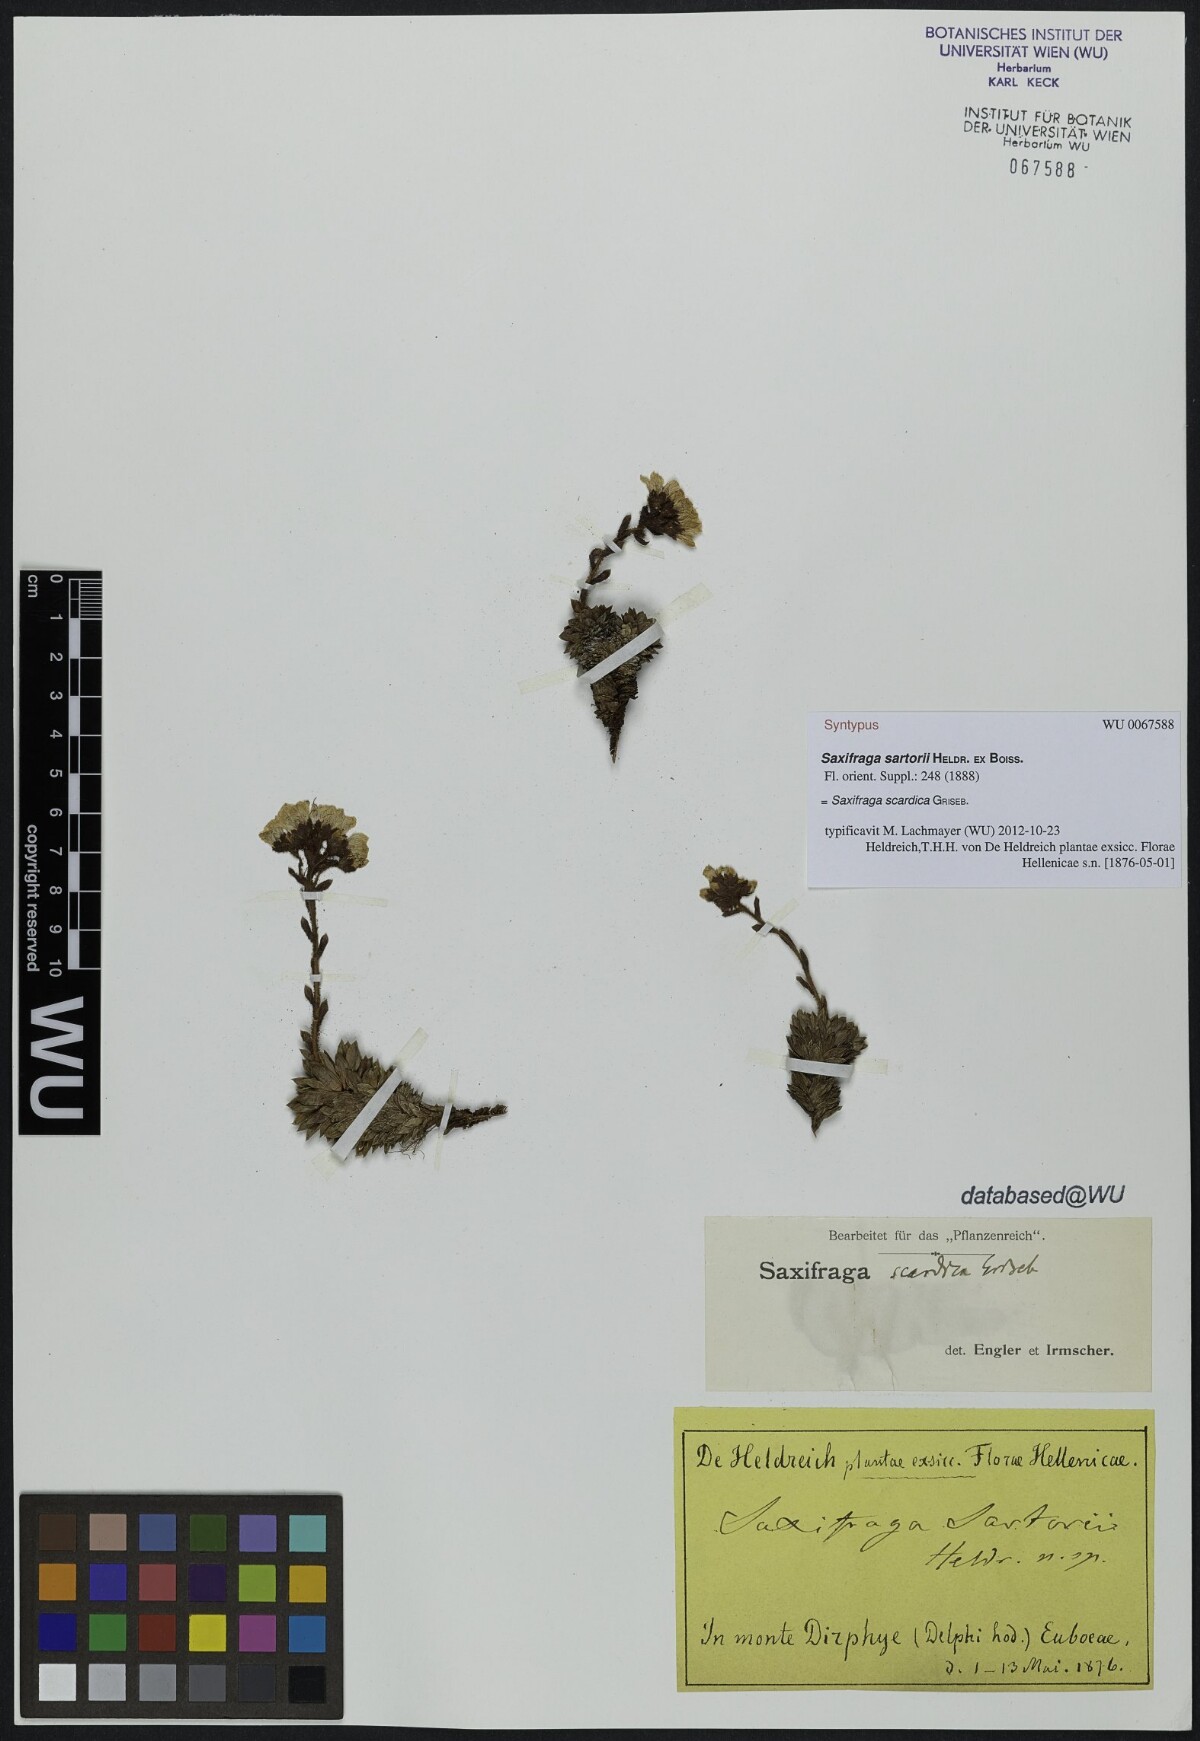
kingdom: Plantae
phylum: Tracheophyta
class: Magnoliopsida
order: Saxifragales
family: Saxifragaceae
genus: Saxifraga
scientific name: Saxifraga scardica
